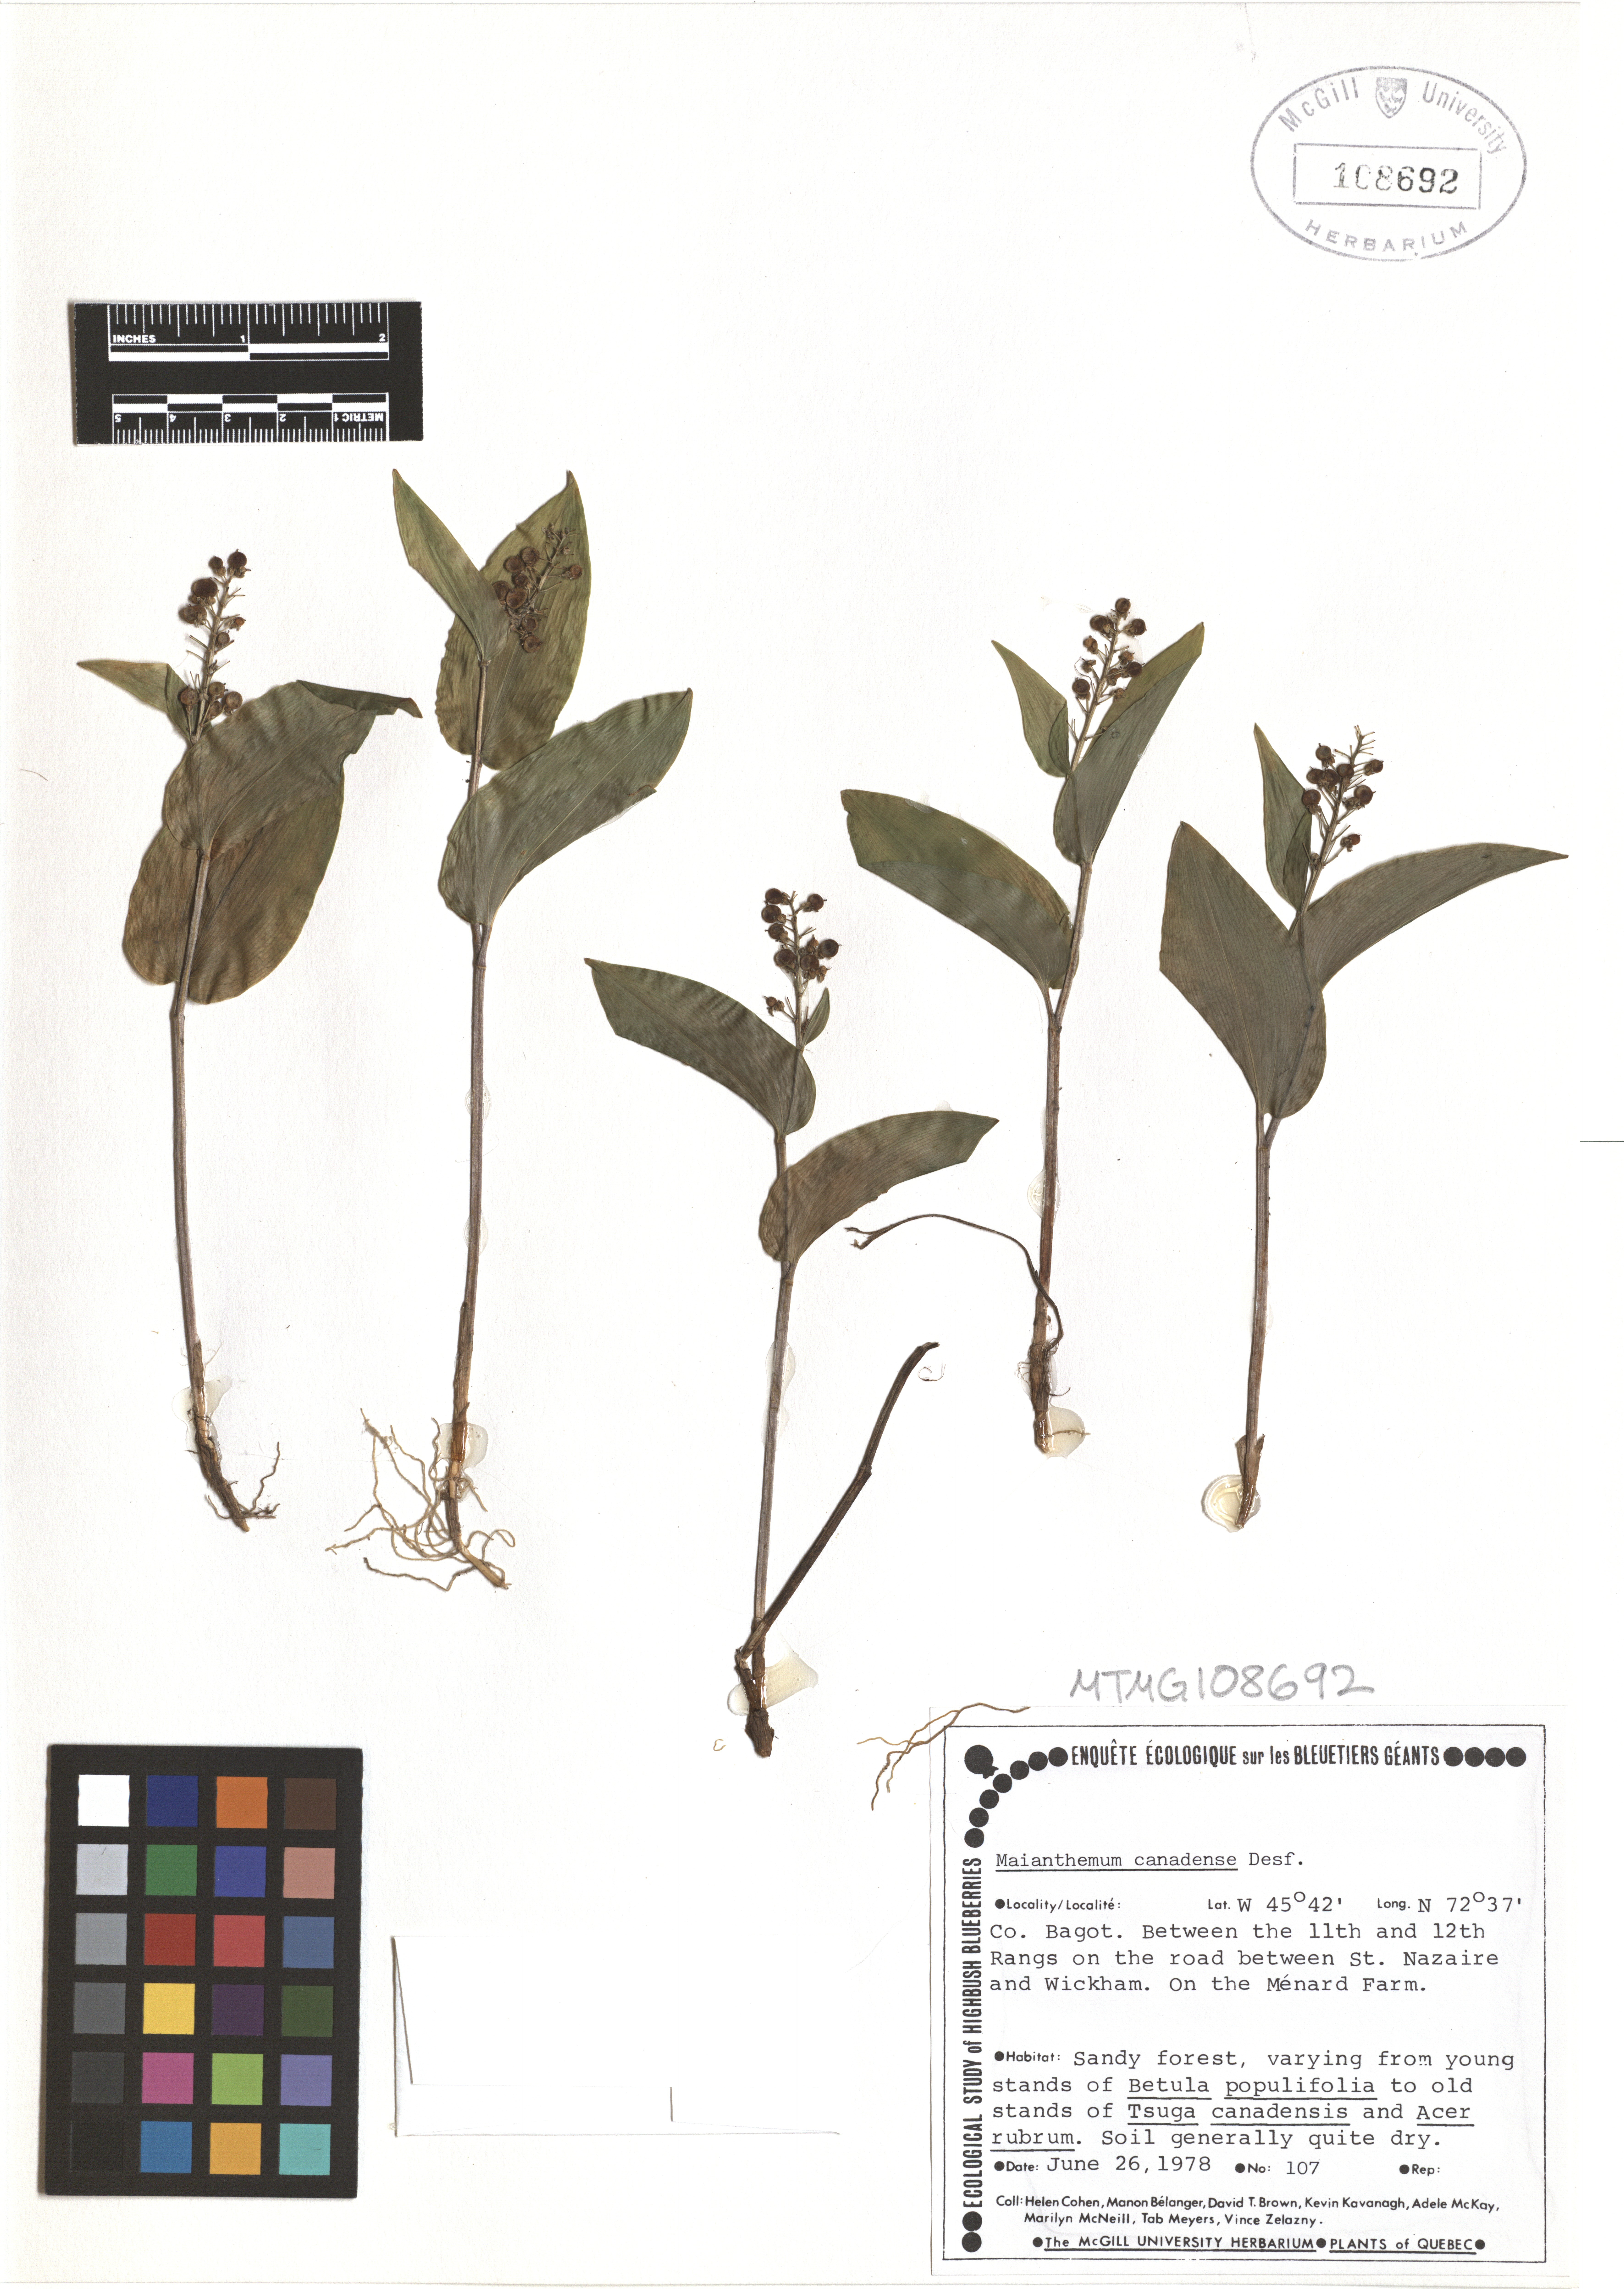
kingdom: Plantae
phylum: Tracheophyta
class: Liliopsida
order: Asparagales
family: Asparagaceae
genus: Maianthemum
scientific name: Maianthemum canadense
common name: False lily-of-the-valley
